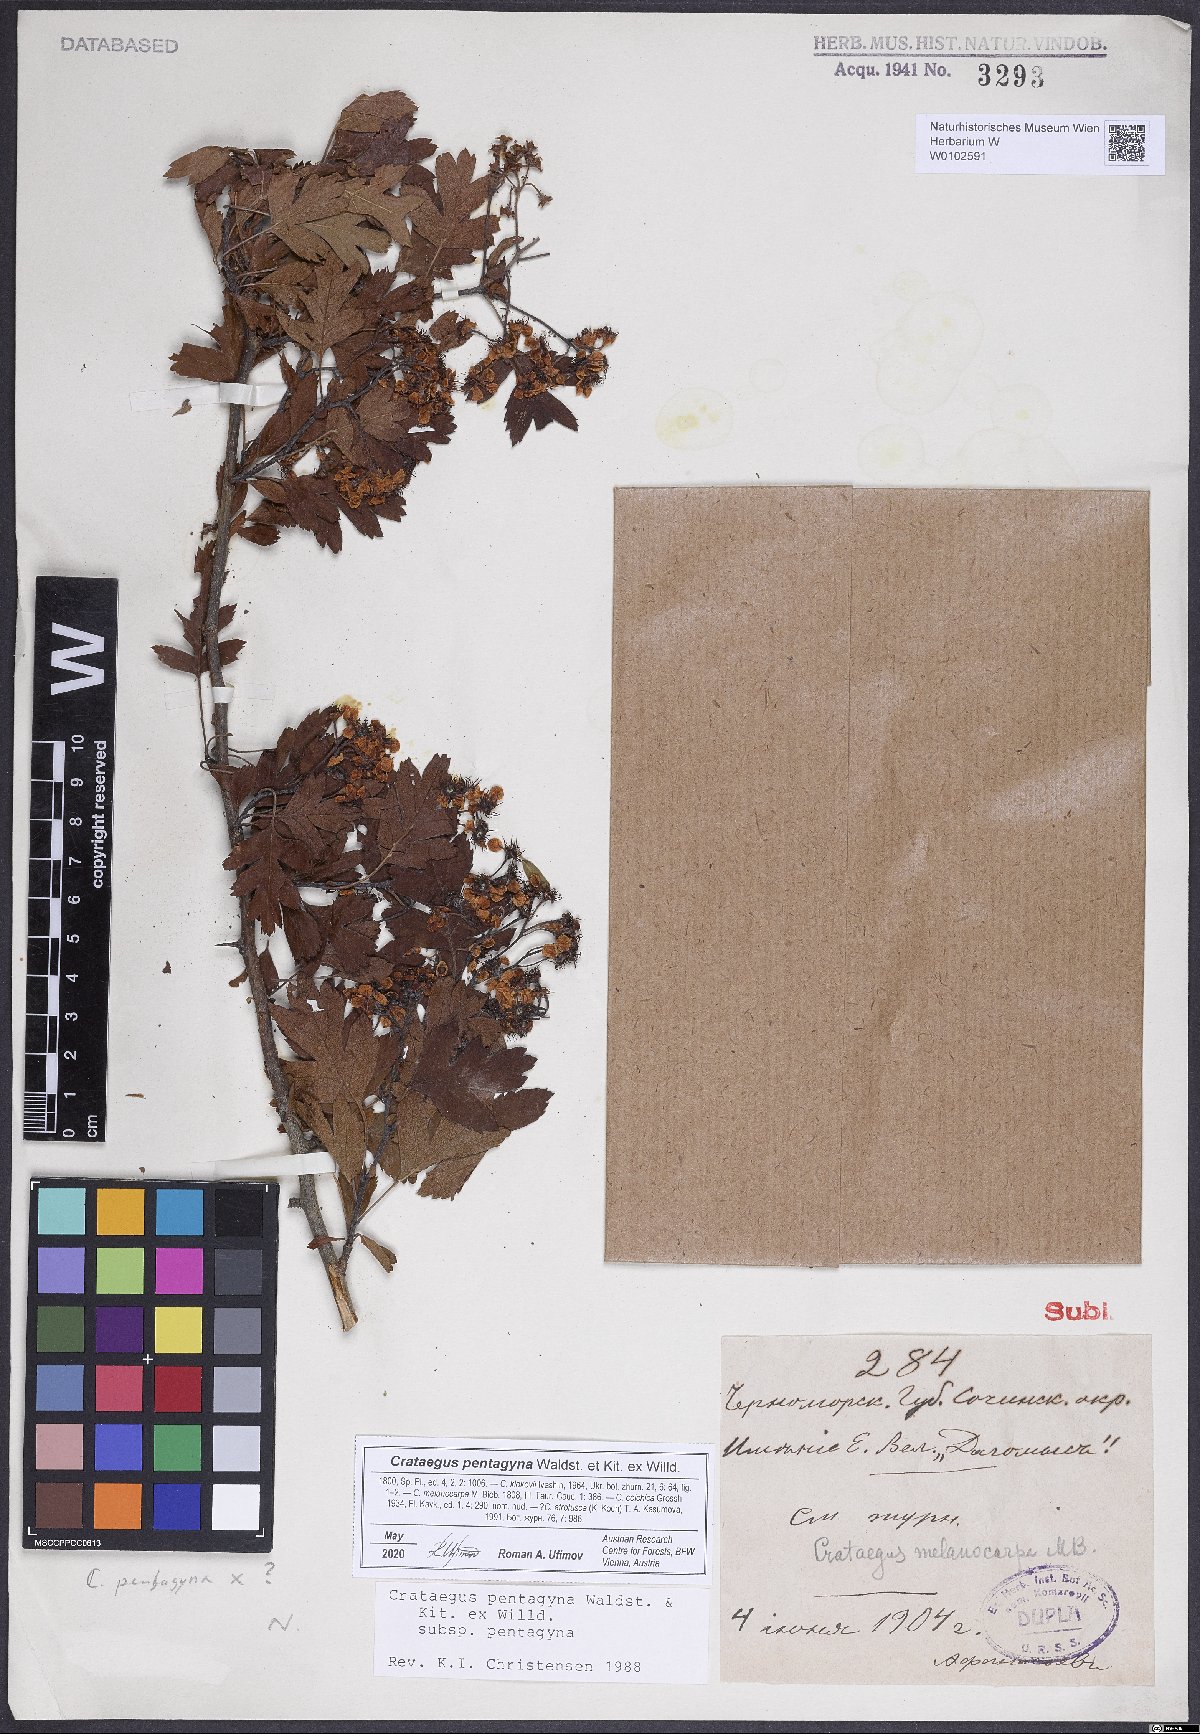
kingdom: Plantae
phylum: Tracheophyta
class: Magnoliopsida
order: Rosales
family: Rosaceae
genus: Crataegus
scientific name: Crataegus pentagyna
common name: Small-flowered black hawthorn
